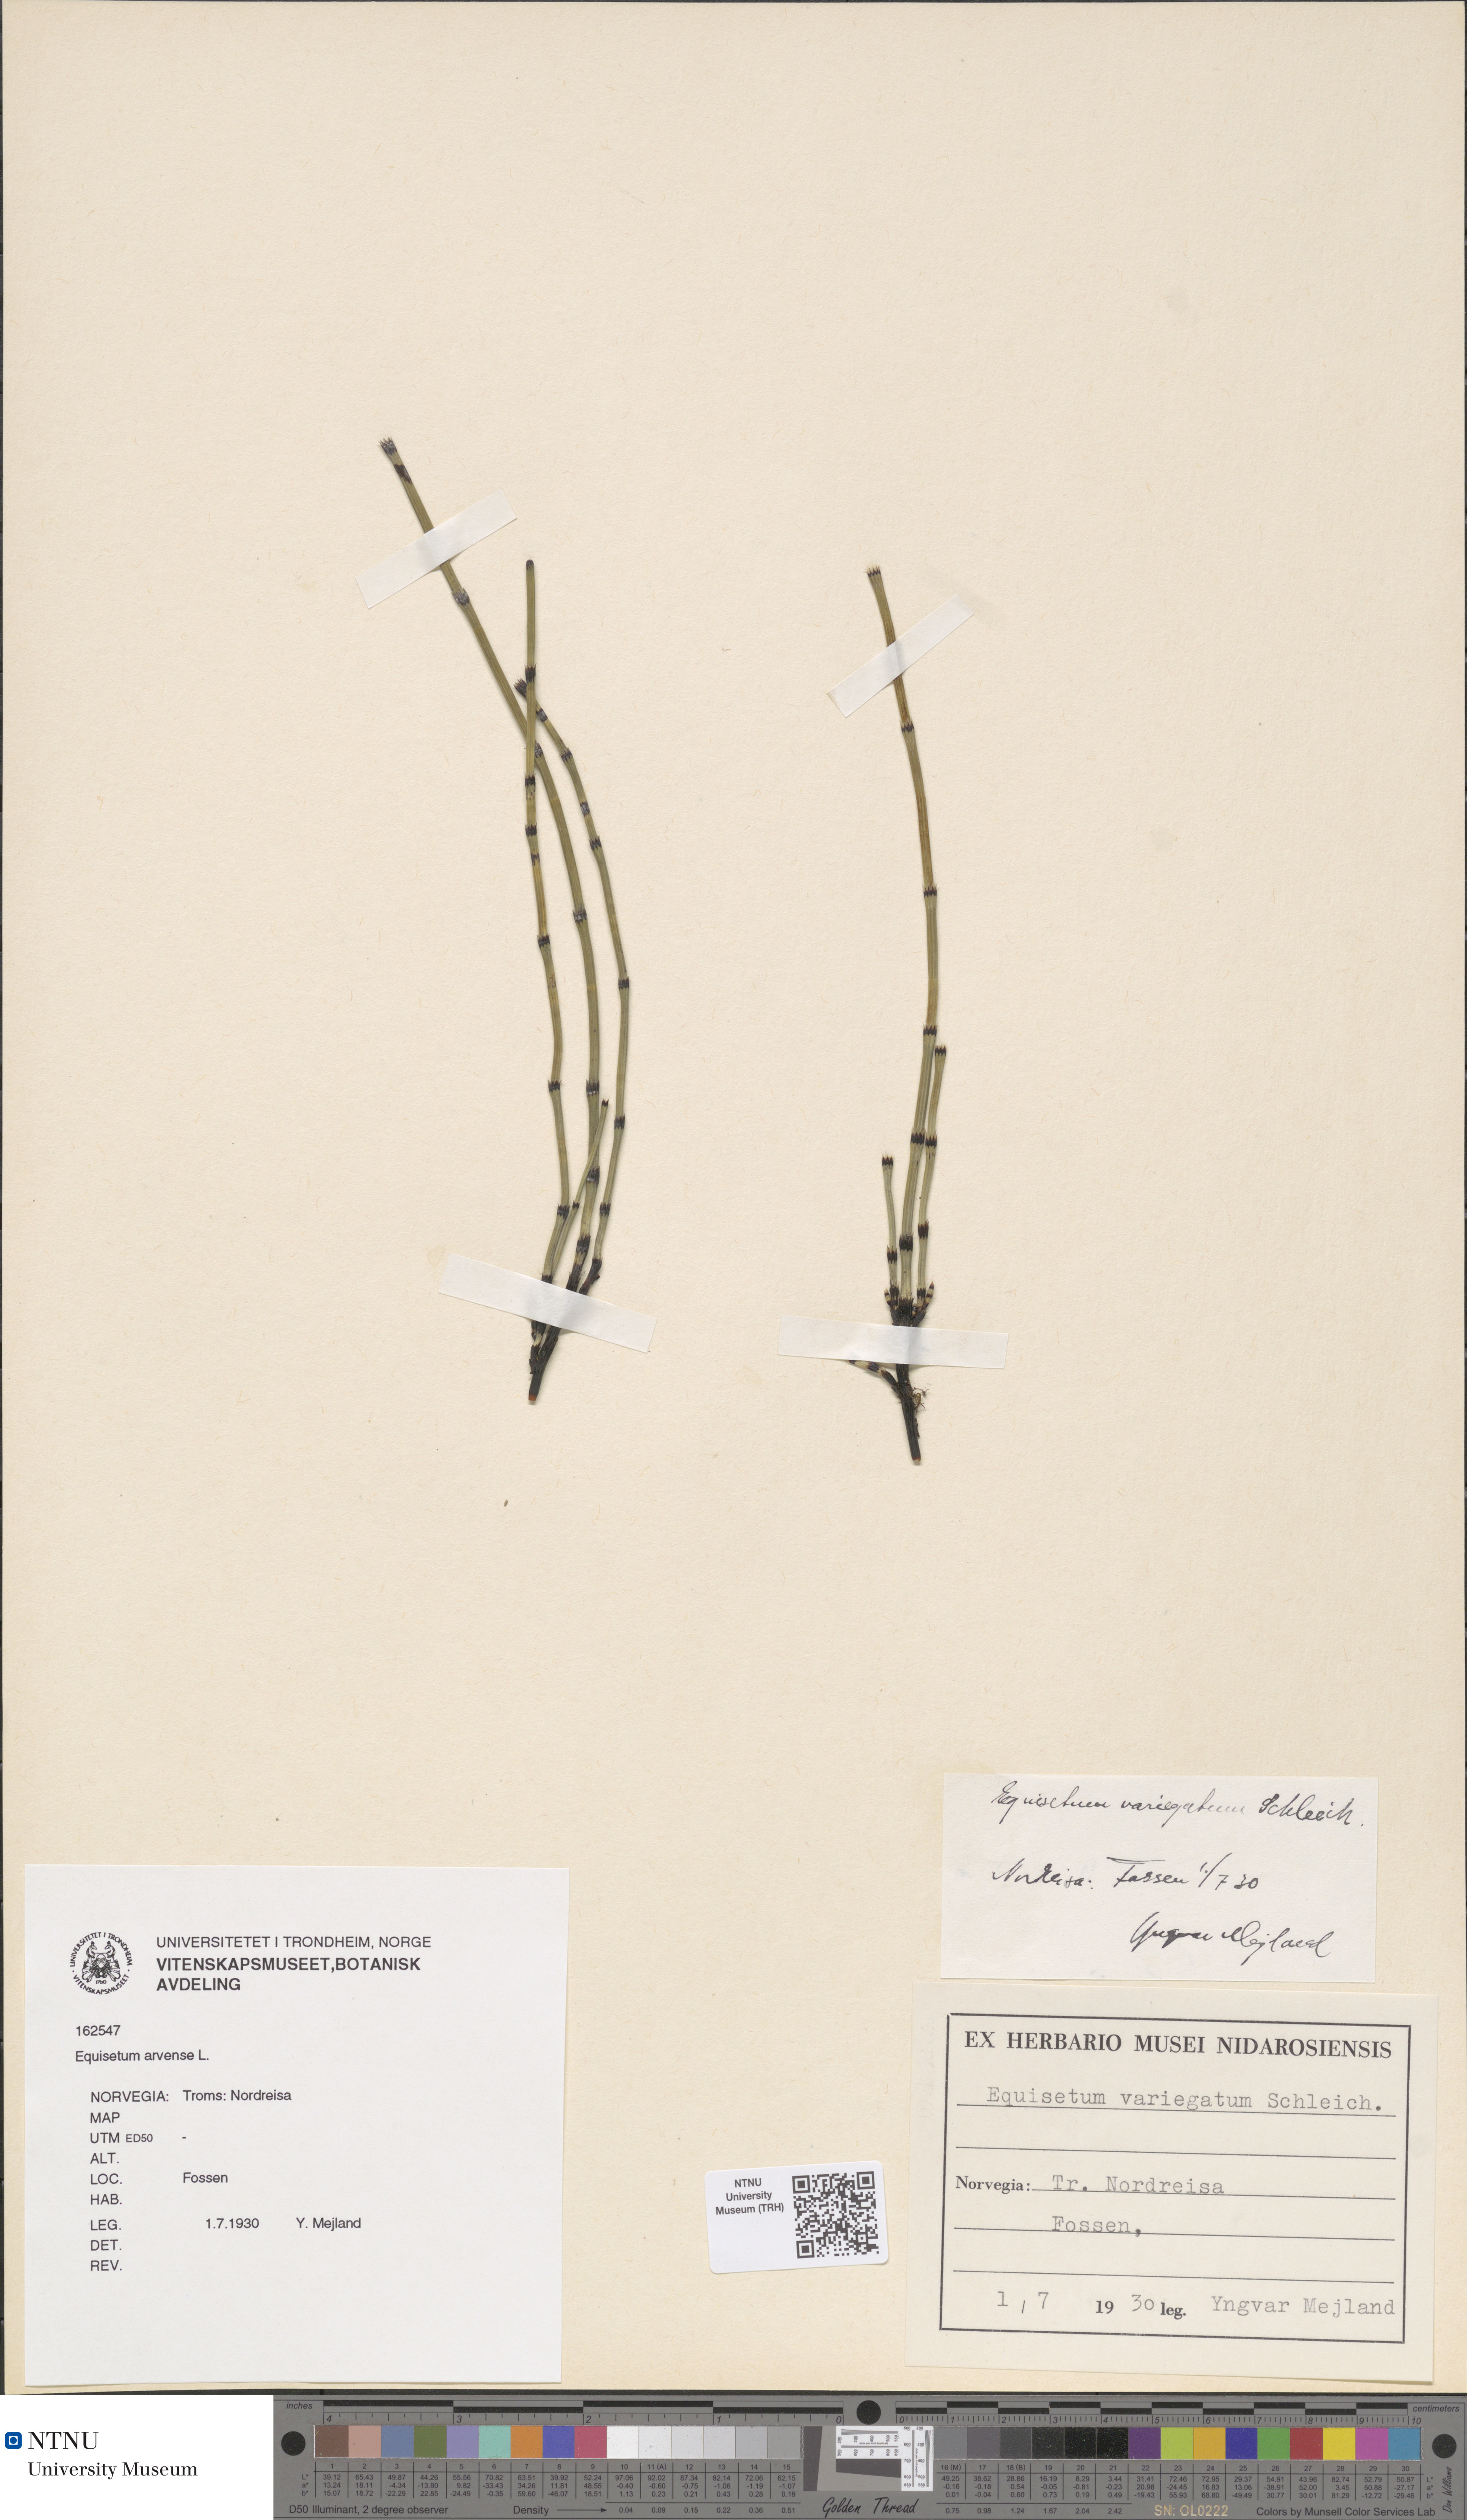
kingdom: Plantae
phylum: Tracheophyta
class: Polypodiopsida
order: Equisetales
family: Equisetaceae
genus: Equisetum
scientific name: Equisetum arvense
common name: Field horsetail
